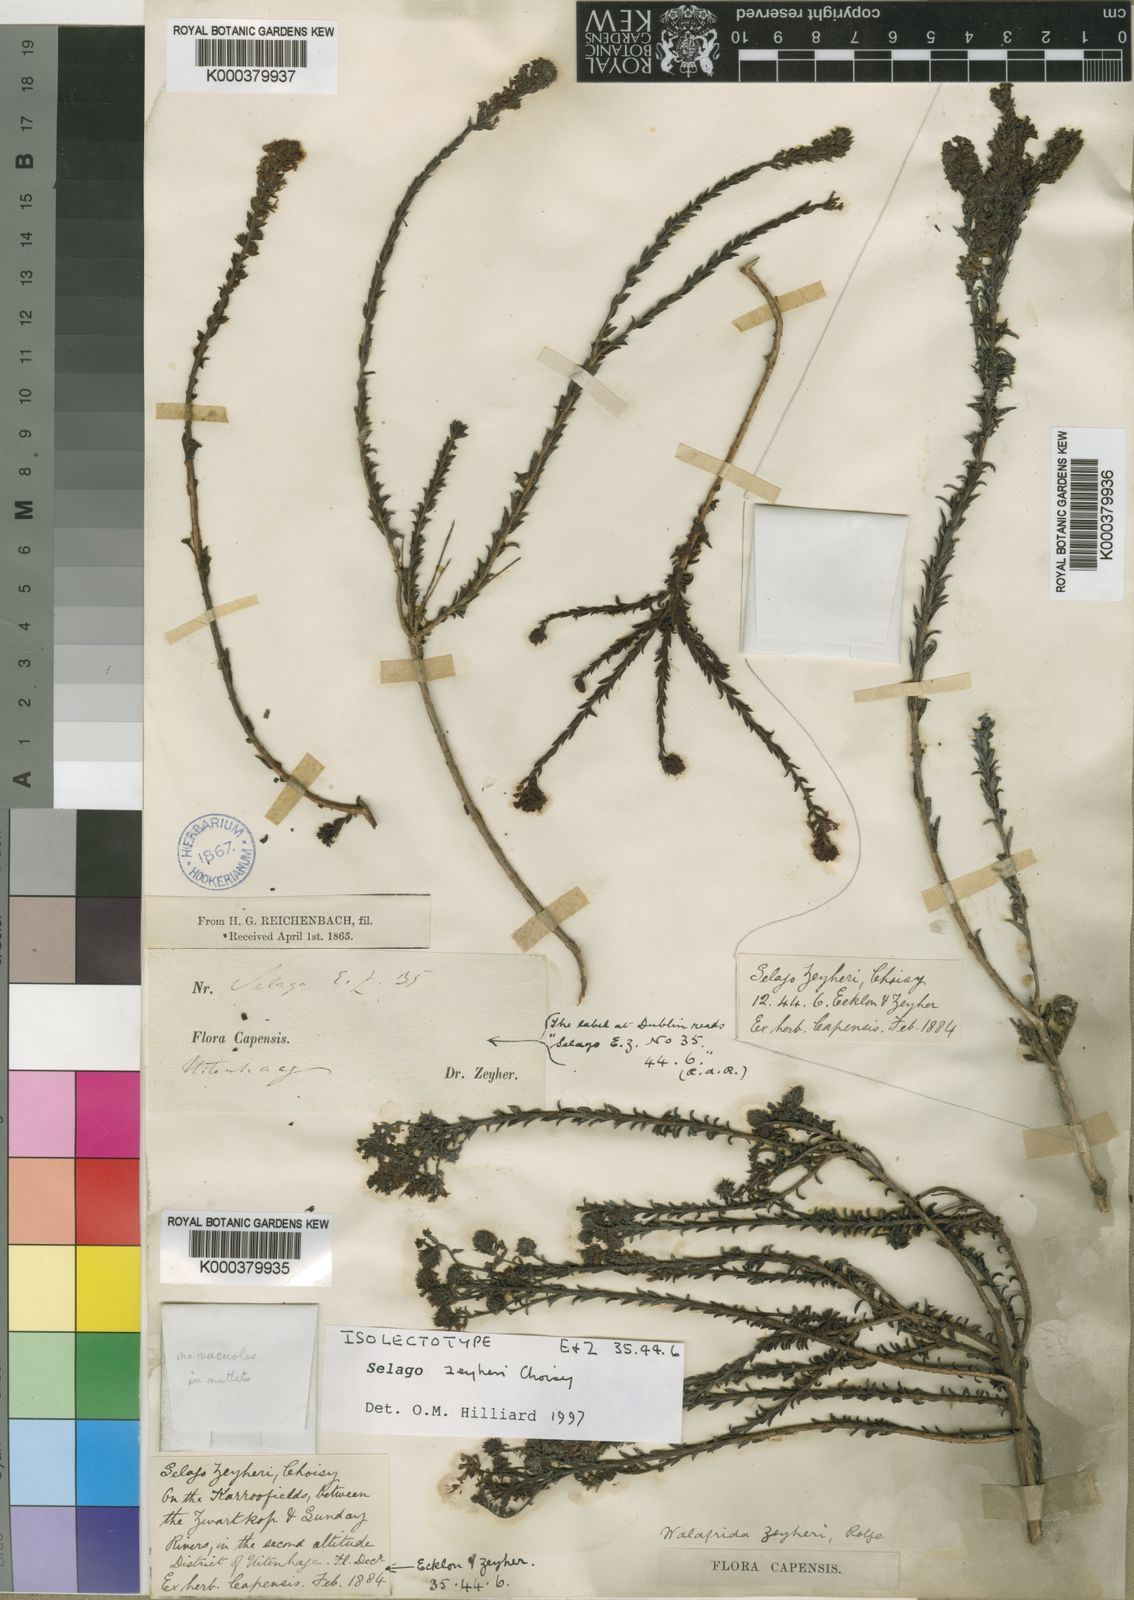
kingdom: Plantae
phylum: Tracheophyta
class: Magnoliopsida
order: Lamiales
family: Scrophulariaceae
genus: Selago
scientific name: Selago zeyheri
